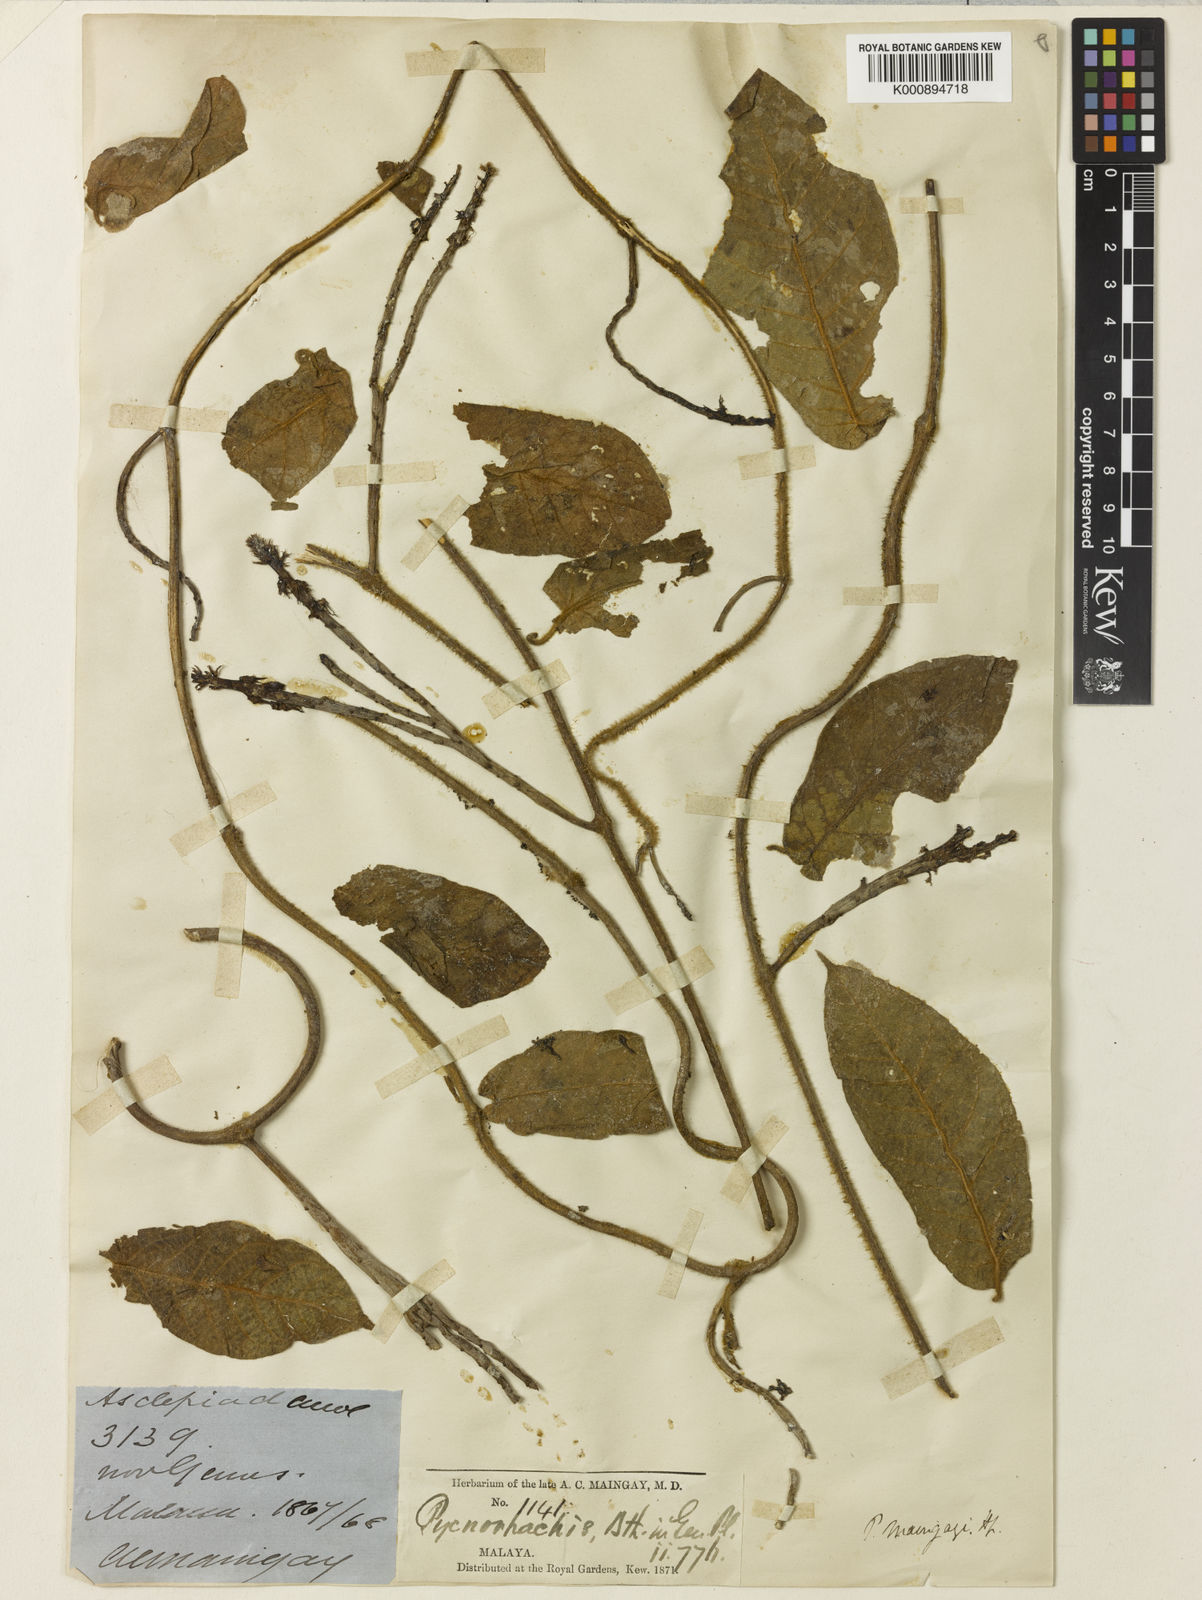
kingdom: Plantae
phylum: Tracheophyta
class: Magnoliopsida
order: Gentianales
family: Apocynaceae
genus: Pycnorhachis
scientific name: Pycnorhachis maingayi
